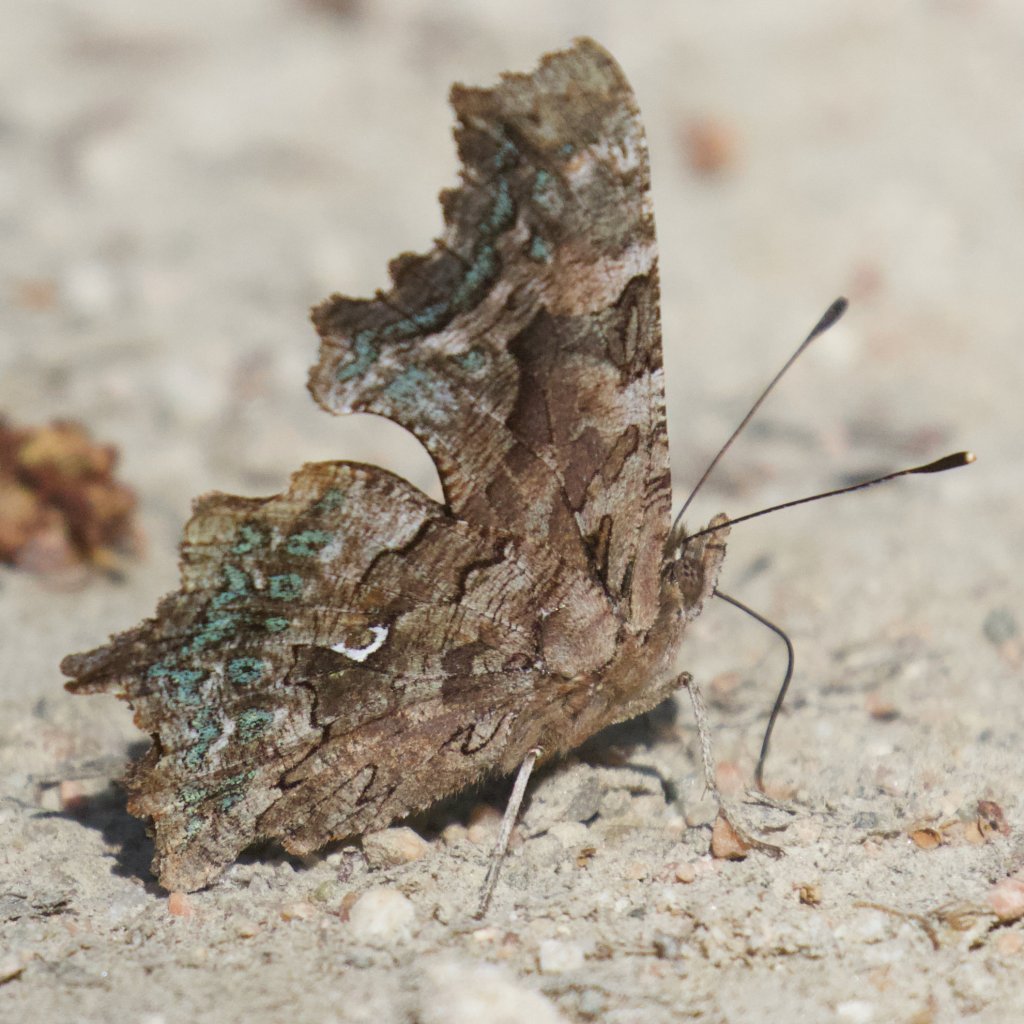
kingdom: Animalia
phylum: Arthropoda
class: Insecta
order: Lepidoptera
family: Nymphalidae
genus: Polygonia
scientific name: Polygonia faunus
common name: Green Comma
